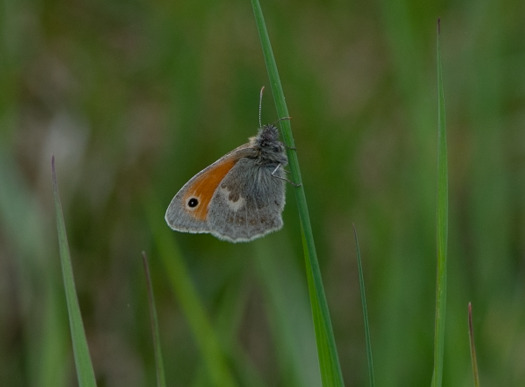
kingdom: Animalia
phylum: Arthropoda
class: Insecta
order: Lepidoptera
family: Nymphalidae
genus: Coenonympha
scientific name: Coenonympha pamphilus
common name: Okkergul randøje
